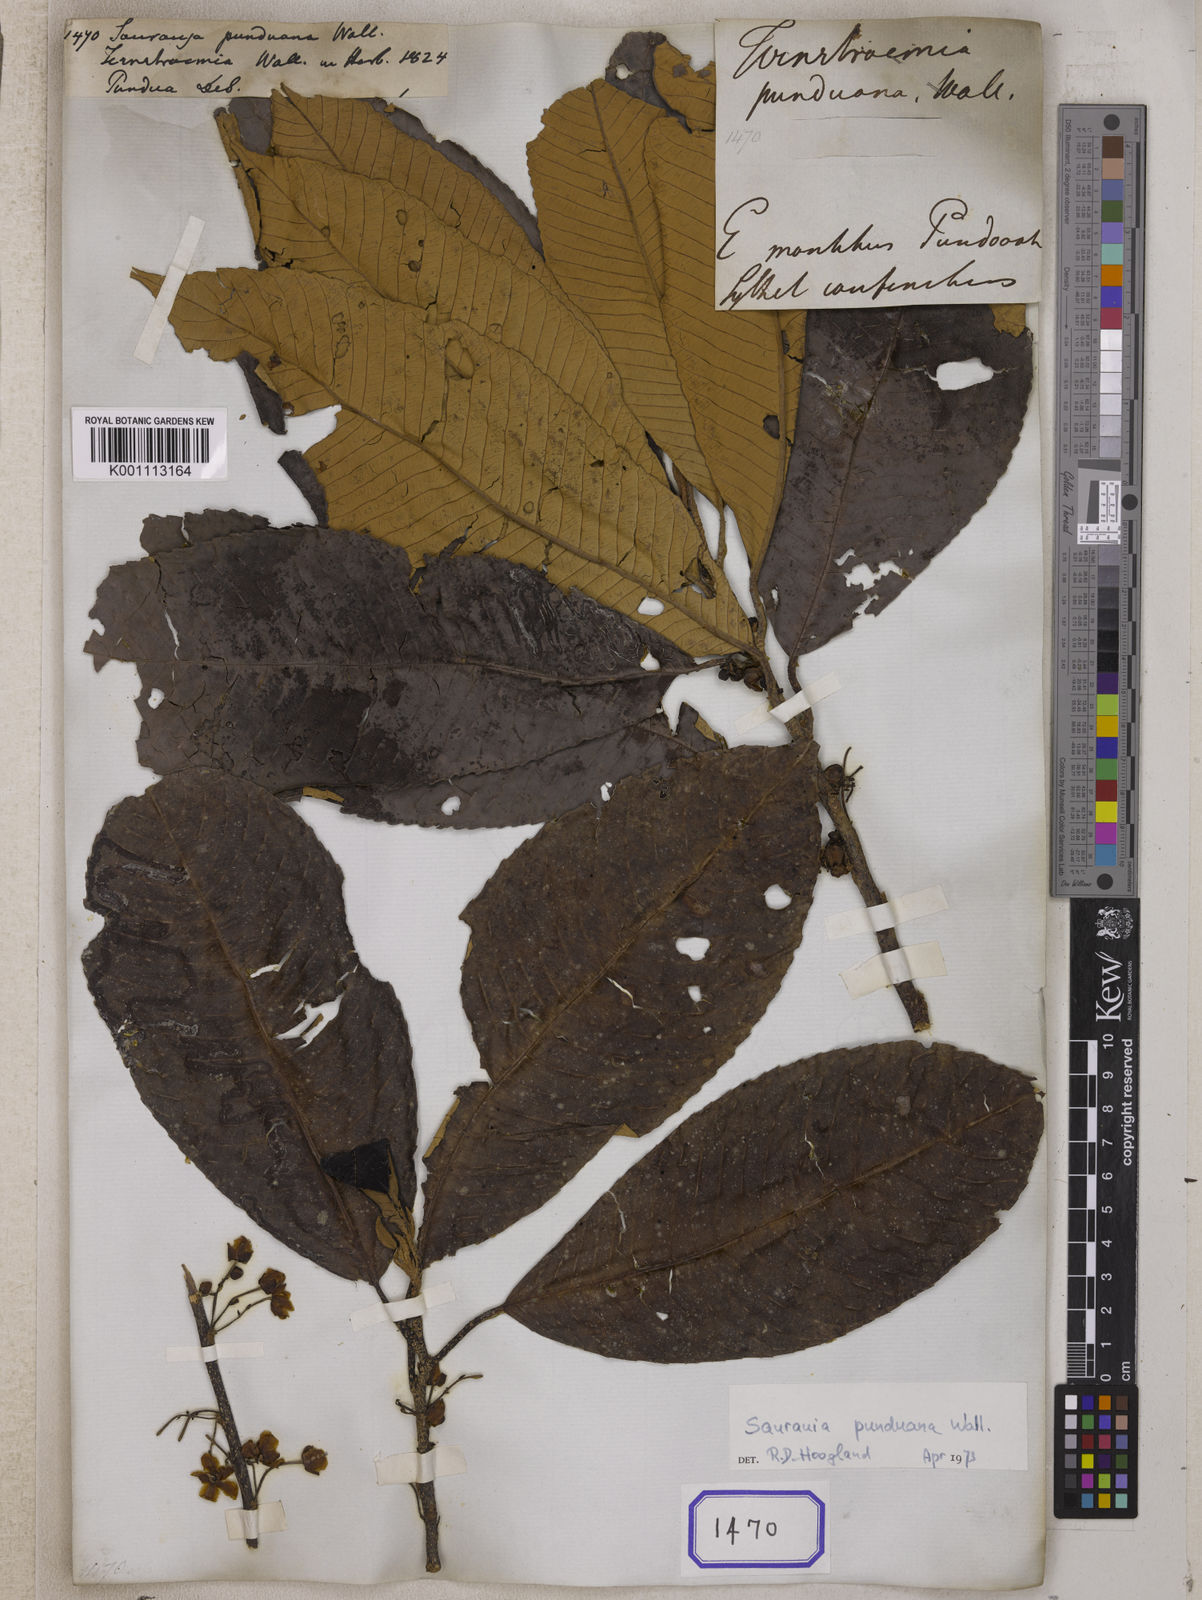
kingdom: Plantae
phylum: Tracheophyta
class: Magnoliopsida
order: Ericales
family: Actinidiaceae
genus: Saurauia
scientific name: Saurauia punduana
